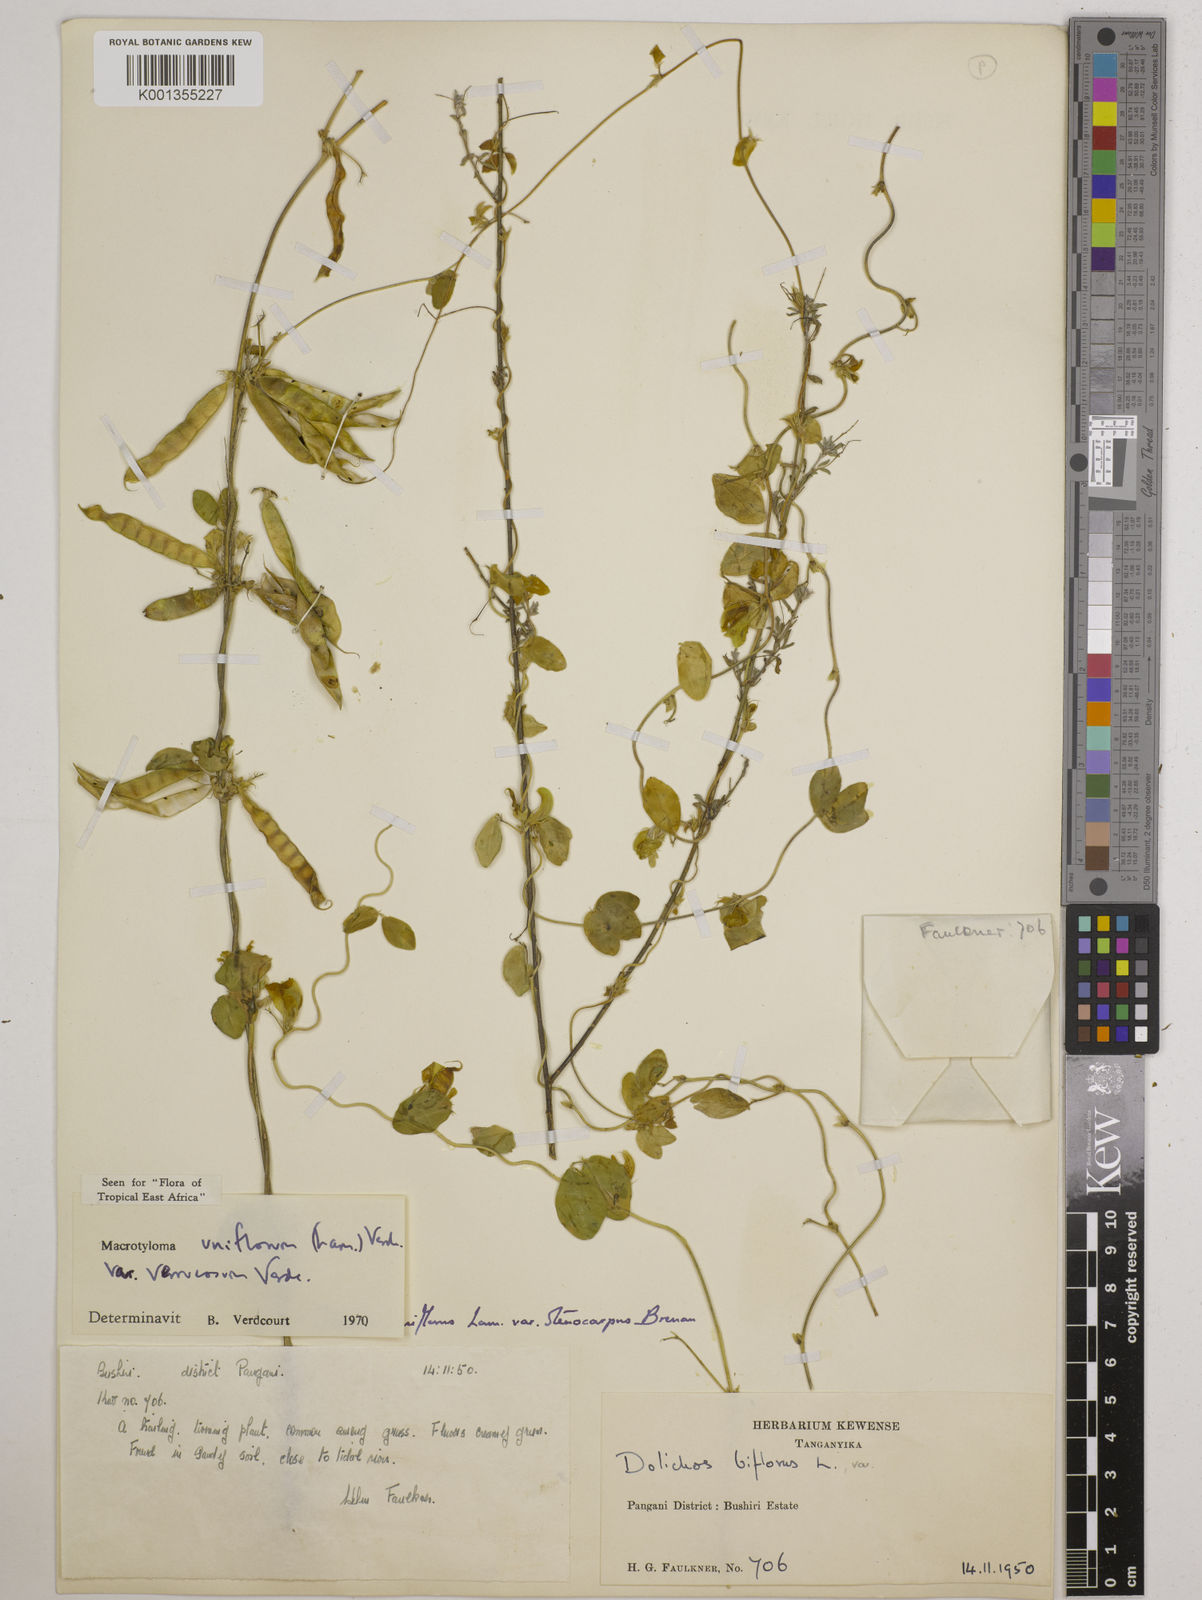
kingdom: Plantae
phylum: Tracheophyta
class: Magnoliopsida
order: Fabales
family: Fabaceae
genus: Macrotyloma
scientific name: Macrotyloma
